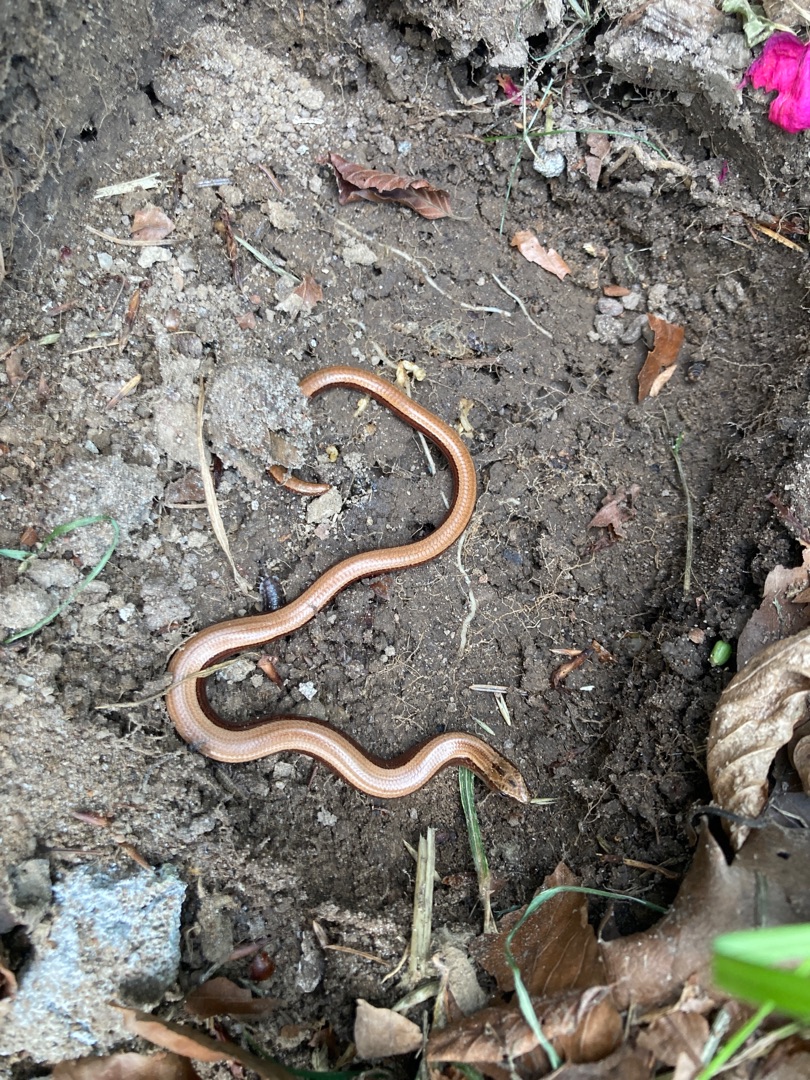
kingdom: Animalia
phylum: Chordata
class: Squamata
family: Anguidae
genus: Anguis
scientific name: Anguis fragilis
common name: Stålorm
